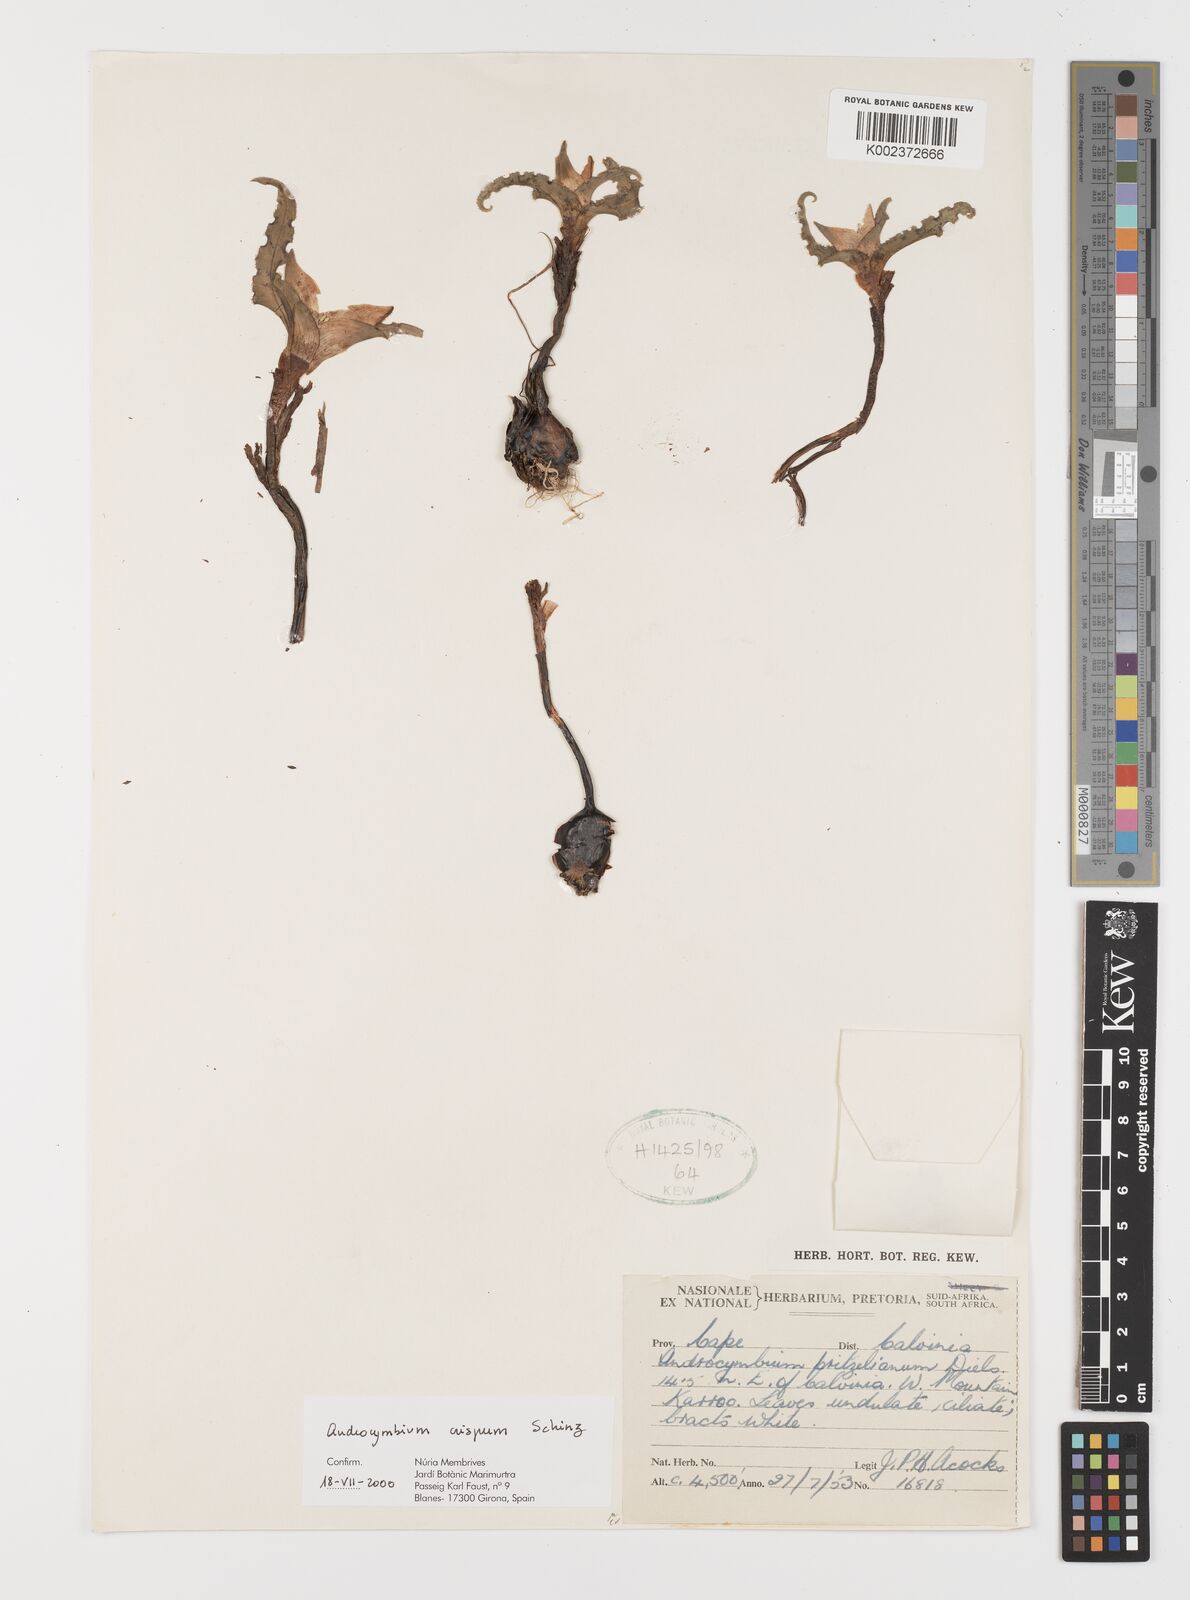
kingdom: Plantae
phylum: Tracheophyta
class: Liliopsida
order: Liliales
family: Colchicaceae
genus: Colchicum
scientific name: Colchicum crispum
